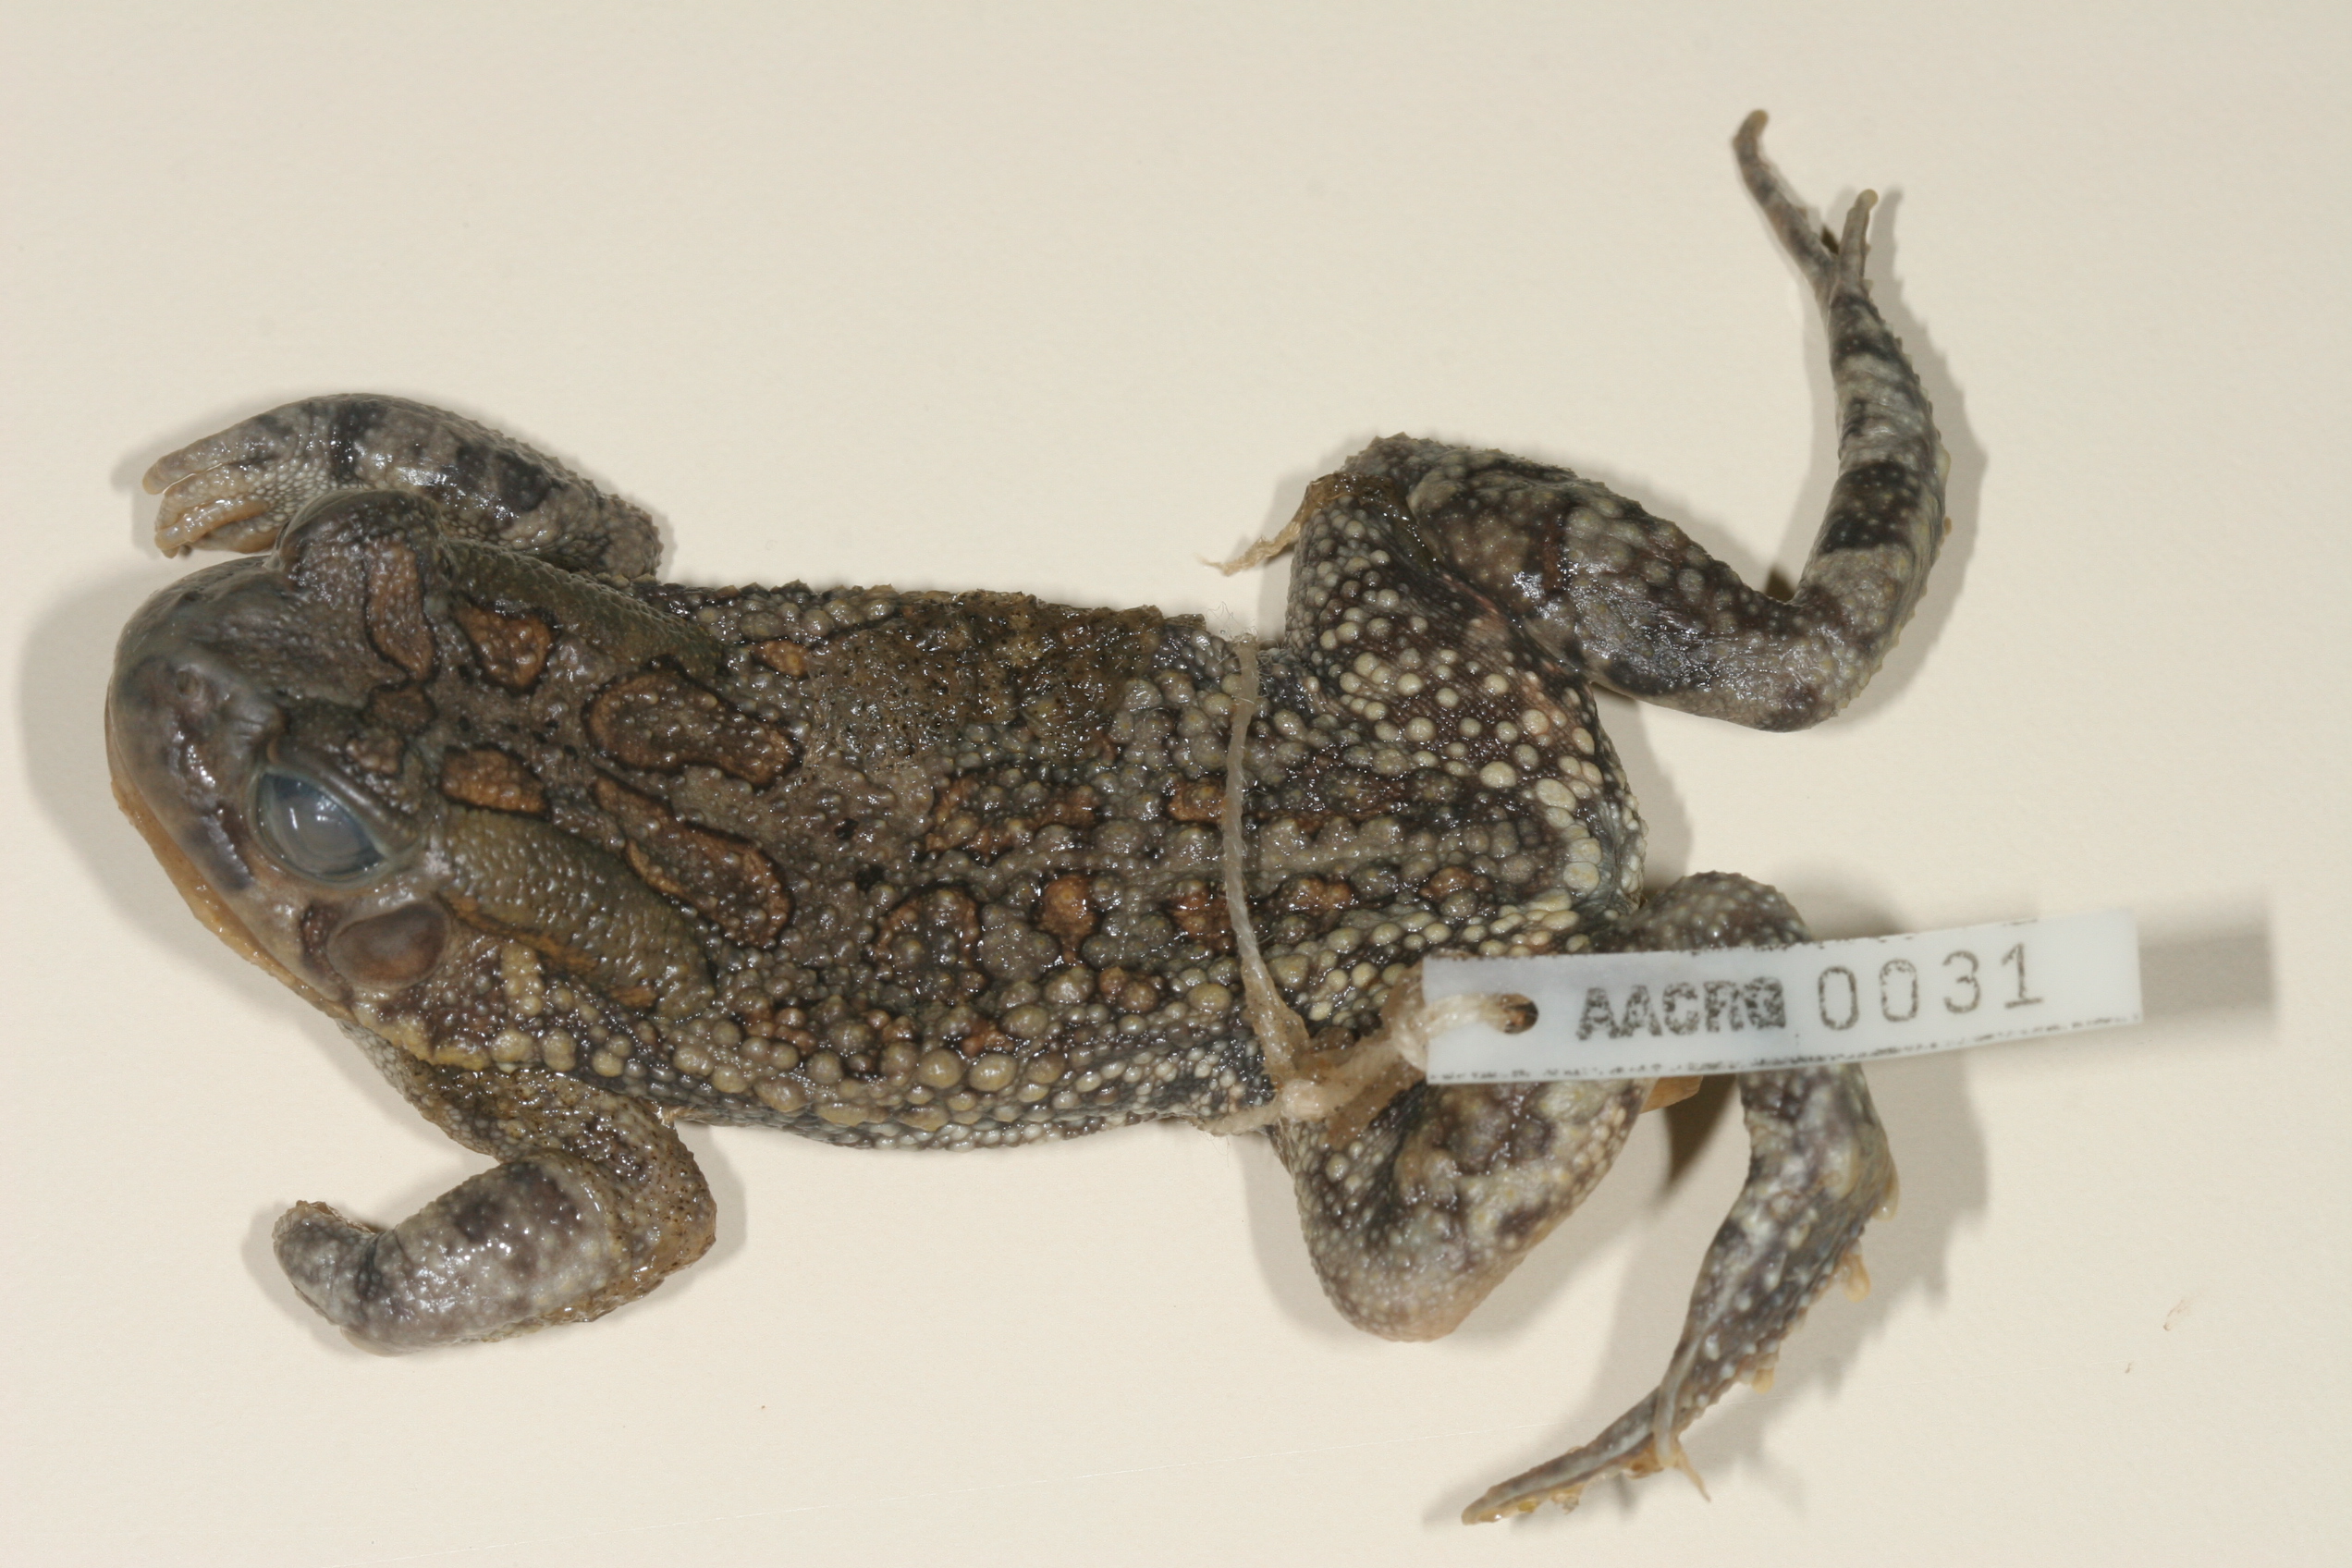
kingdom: Animalia
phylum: Chordata
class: Amphibia
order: Anura
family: Bufonidae
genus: Sclerophrys
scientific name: Sclerophrys garmani
